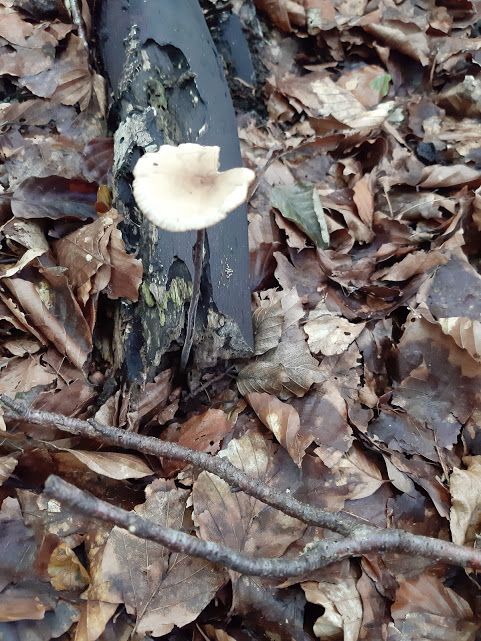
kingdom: Fungi
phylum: Basidiomycota
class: Agaricomycetes
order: Agaricales
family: Omphalotaceae
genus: Mycetinis
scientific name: Mycetinis alliaceus
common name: stor løghat
